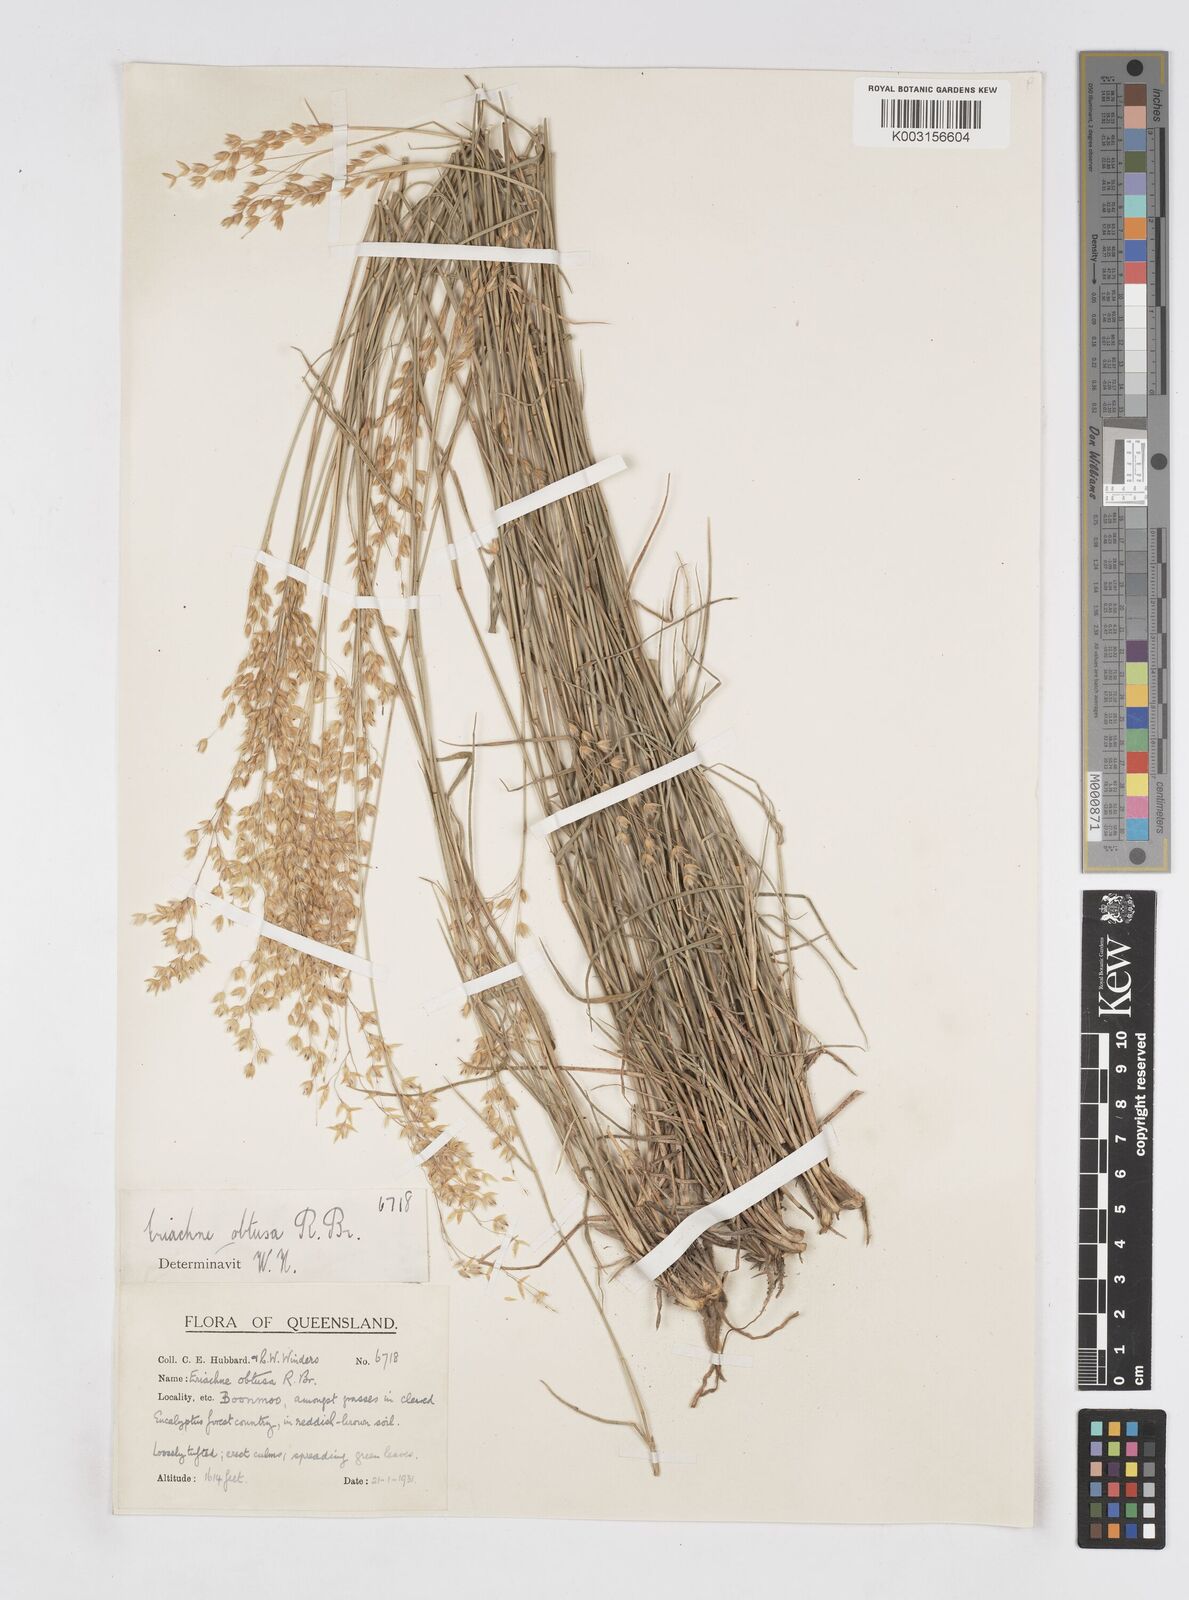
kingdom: Plantae
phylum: Tracheophyta
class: Liliopsida
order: Poales
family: Poaceae
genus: Eriachne
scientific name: Eriachne obtusa
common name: Northern wanderrie grass
